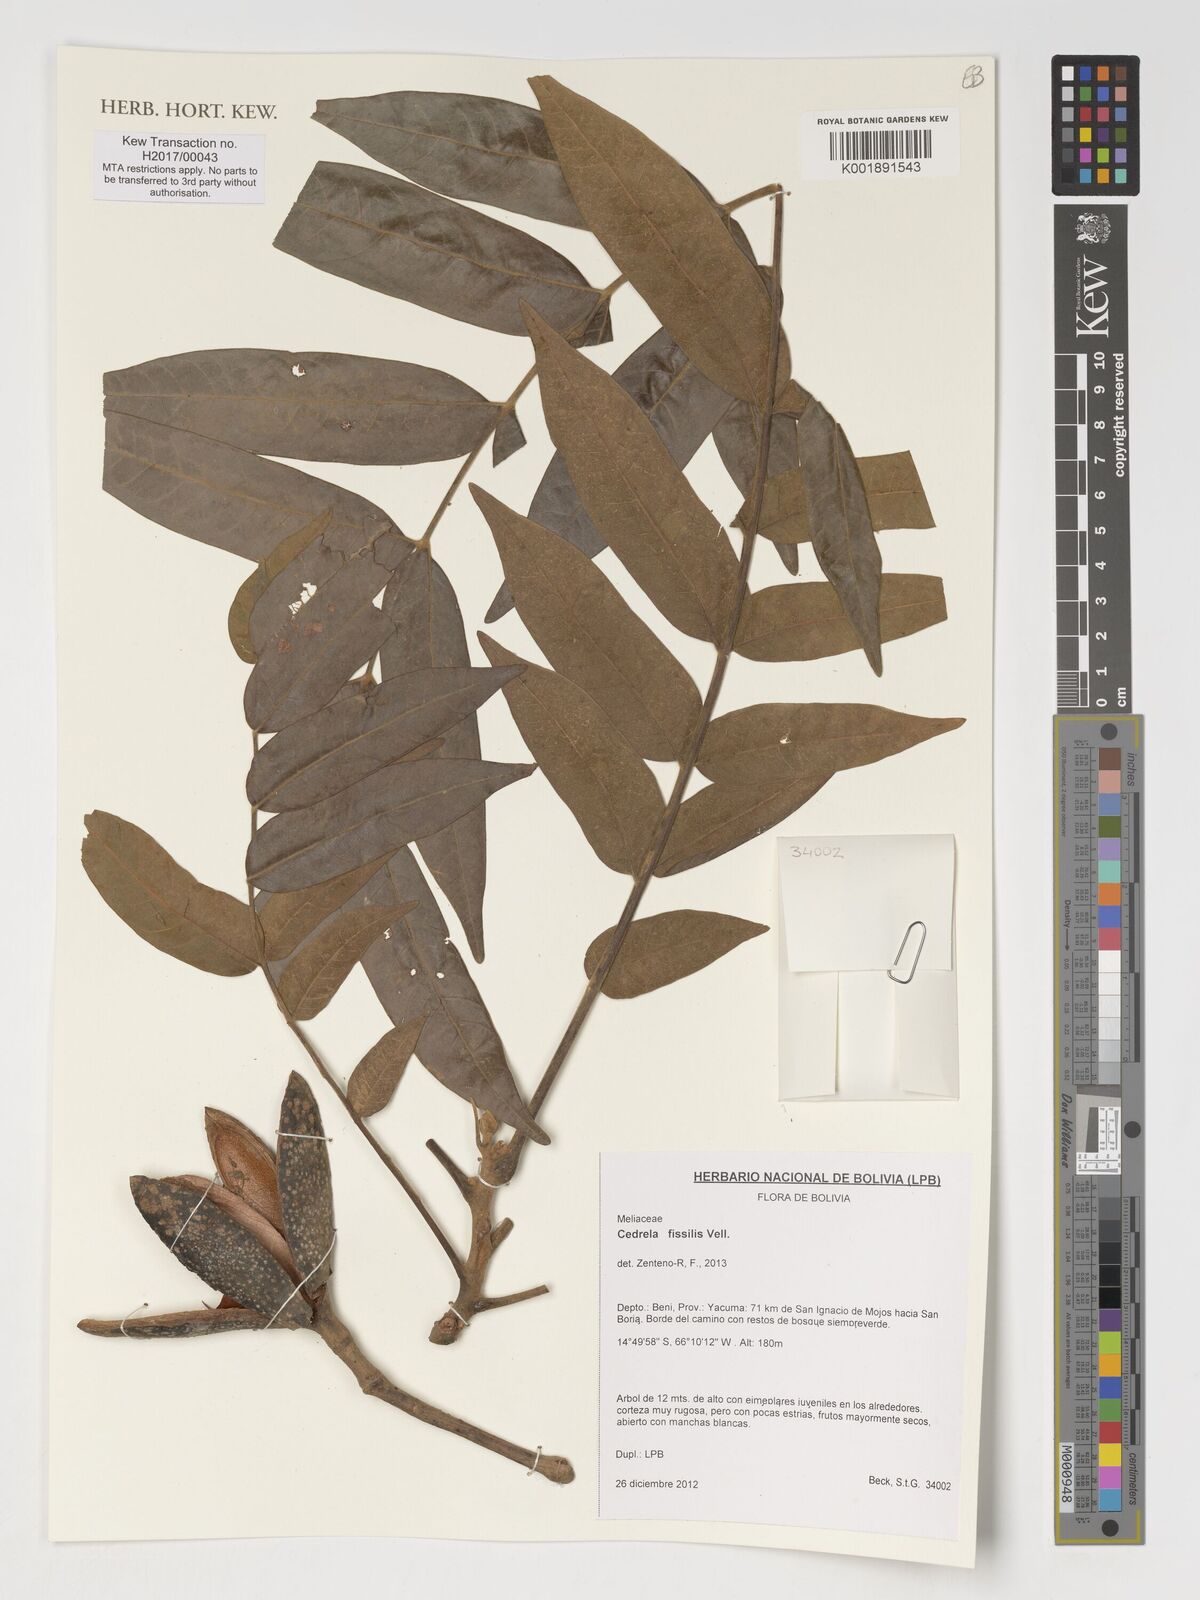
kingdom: Plantae
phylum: Tracheophyta
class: Magnoliopsida
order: Sapindales
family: Meliaceae
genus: Cedrela
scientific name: Cedrela fissilis
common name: Argentine cedar
